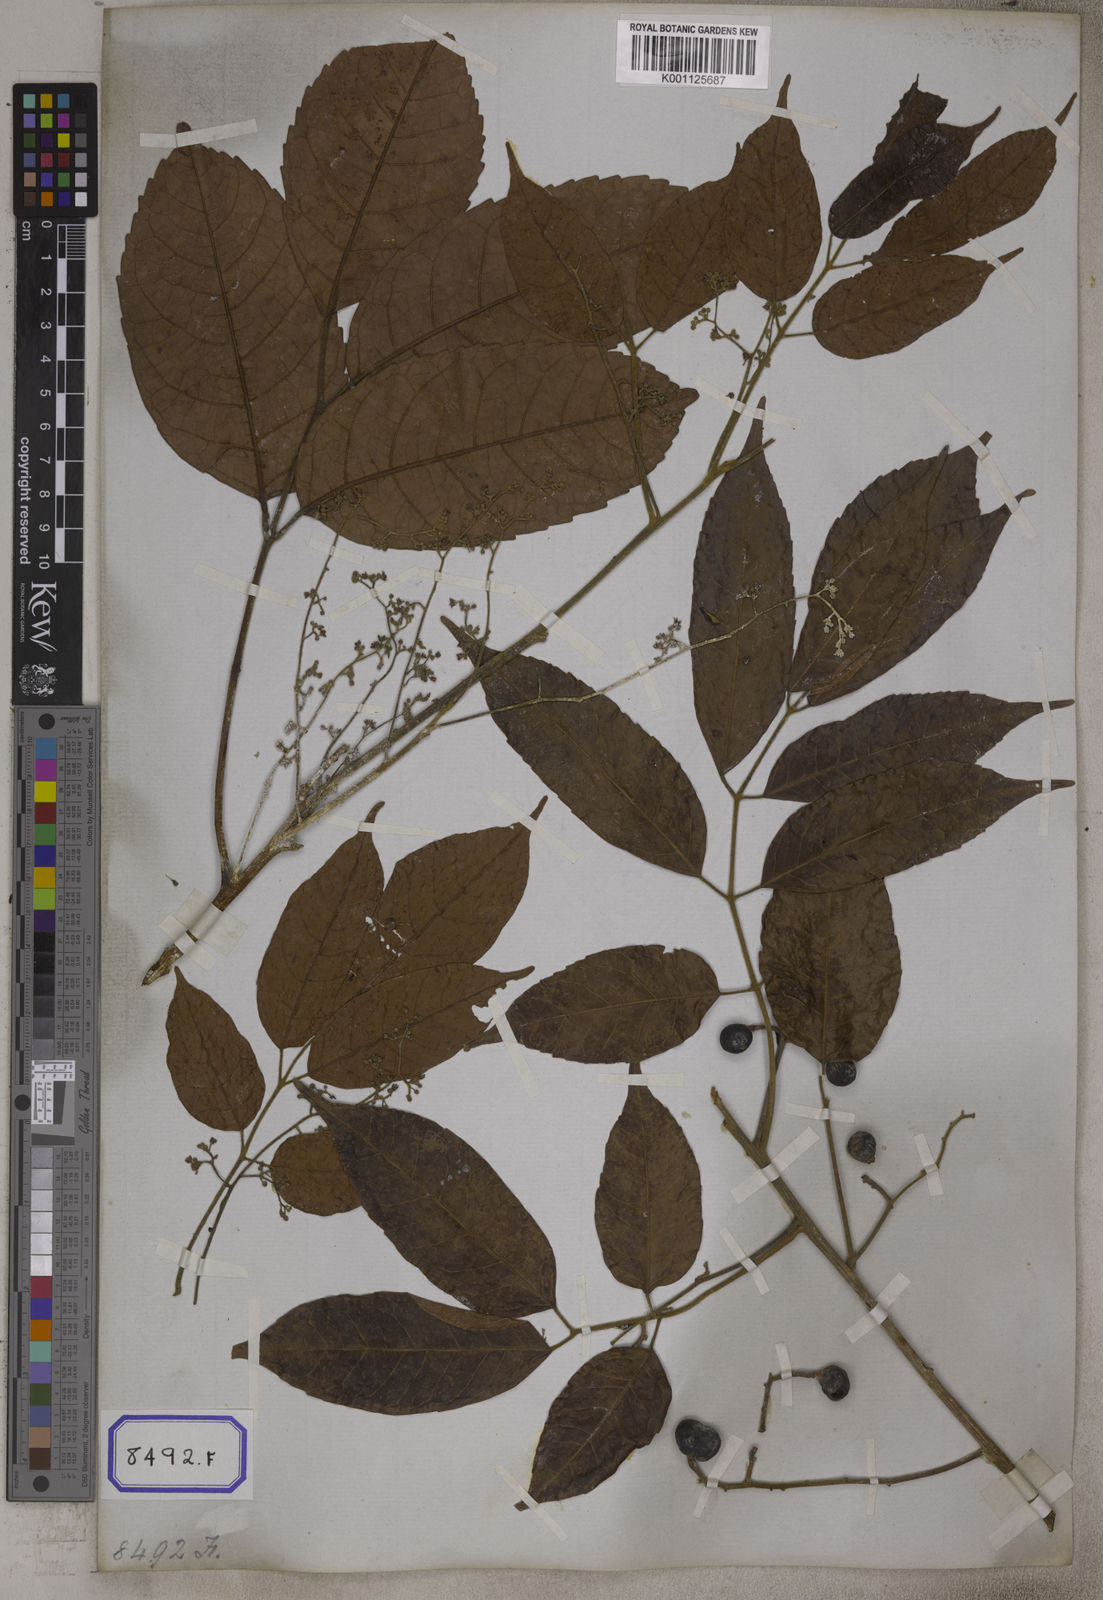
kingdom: Plantae
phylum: Tracheophyta
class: Magnoliopsida
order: Sapindales
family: Burseraceae
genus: Protium
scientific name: Protium serratum
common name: Murtenga
